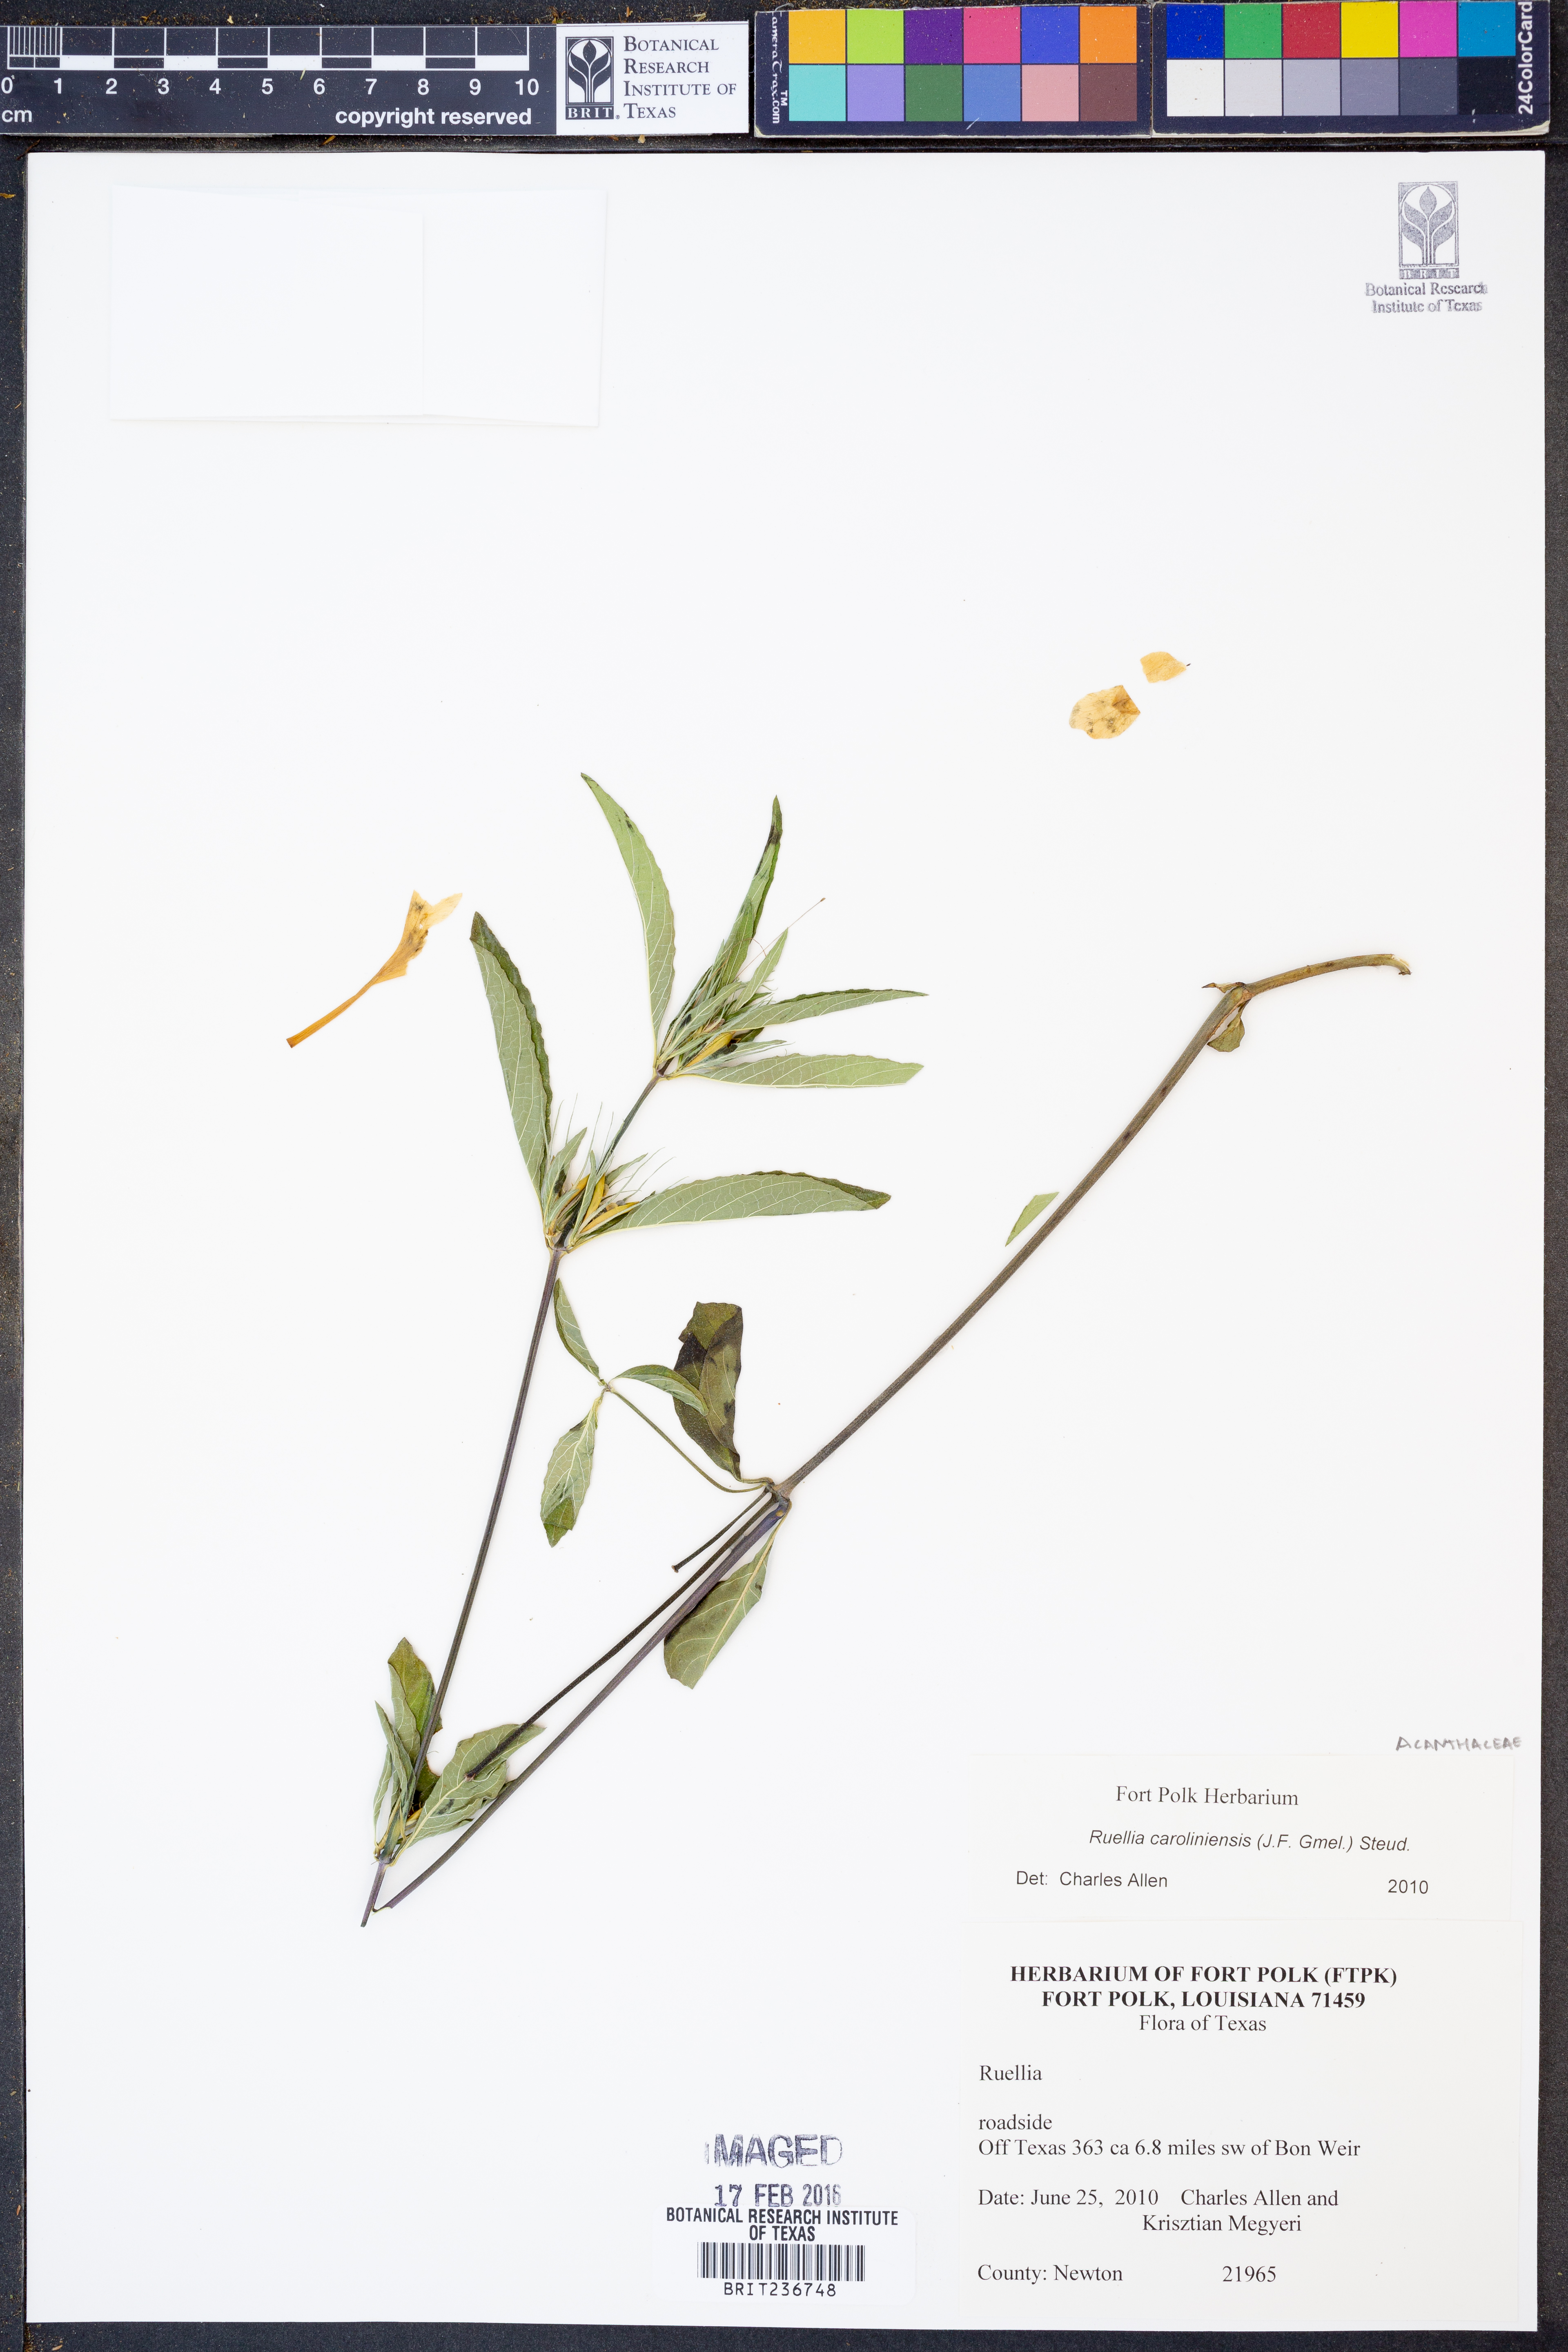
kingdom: Plantae
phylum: Tracheophyta
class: Magnoliopsida
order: Lamiales
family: Acanthaceae
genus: Ruellia
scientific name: Ruellia caroliniensis
